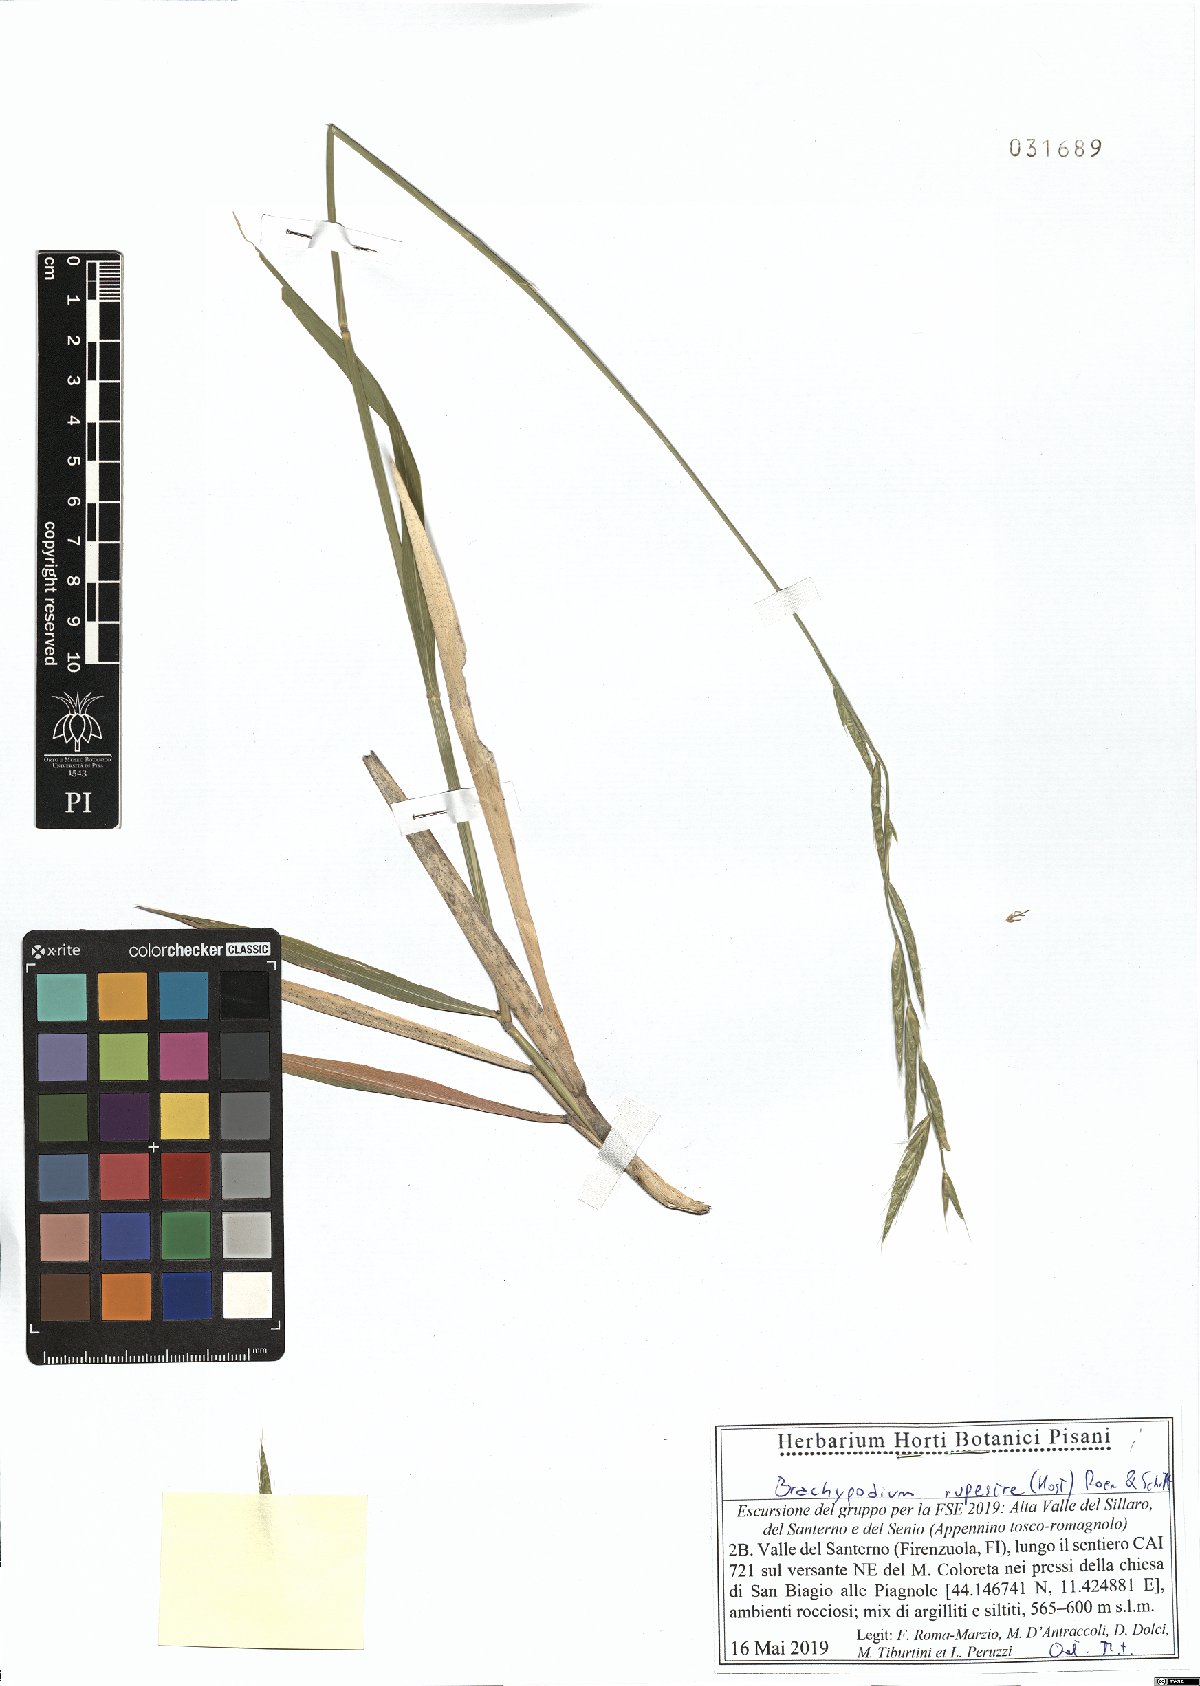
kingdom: Plantae
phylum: Tracheophyta
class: Liliopsida
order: Poales
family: Poaceae
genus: Brachypodium
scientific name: Brachypodium pinnatum
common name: Tor grass
